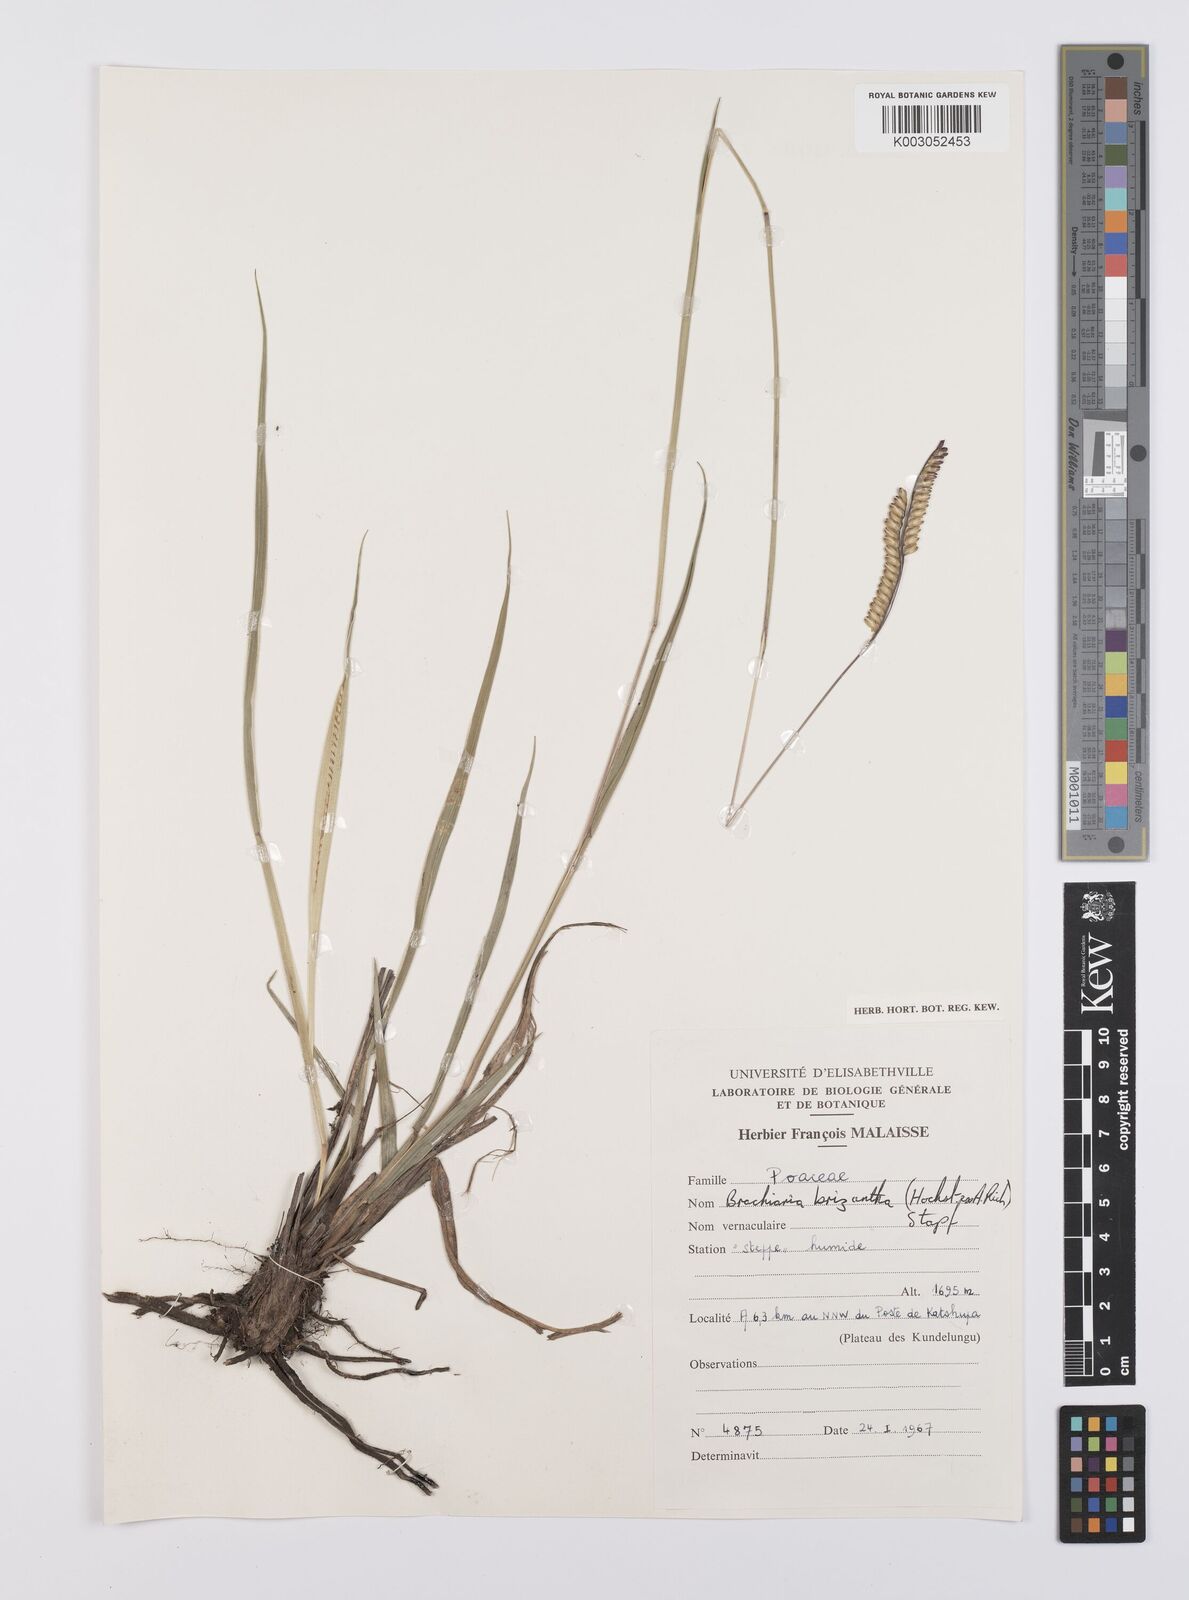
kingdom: Plantae
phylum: Tracheophyta
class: Liliopsida
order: Poales
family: Poaceae
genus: Urochloa
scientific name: Urochloa brizantha
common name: Palisade signalgrass
